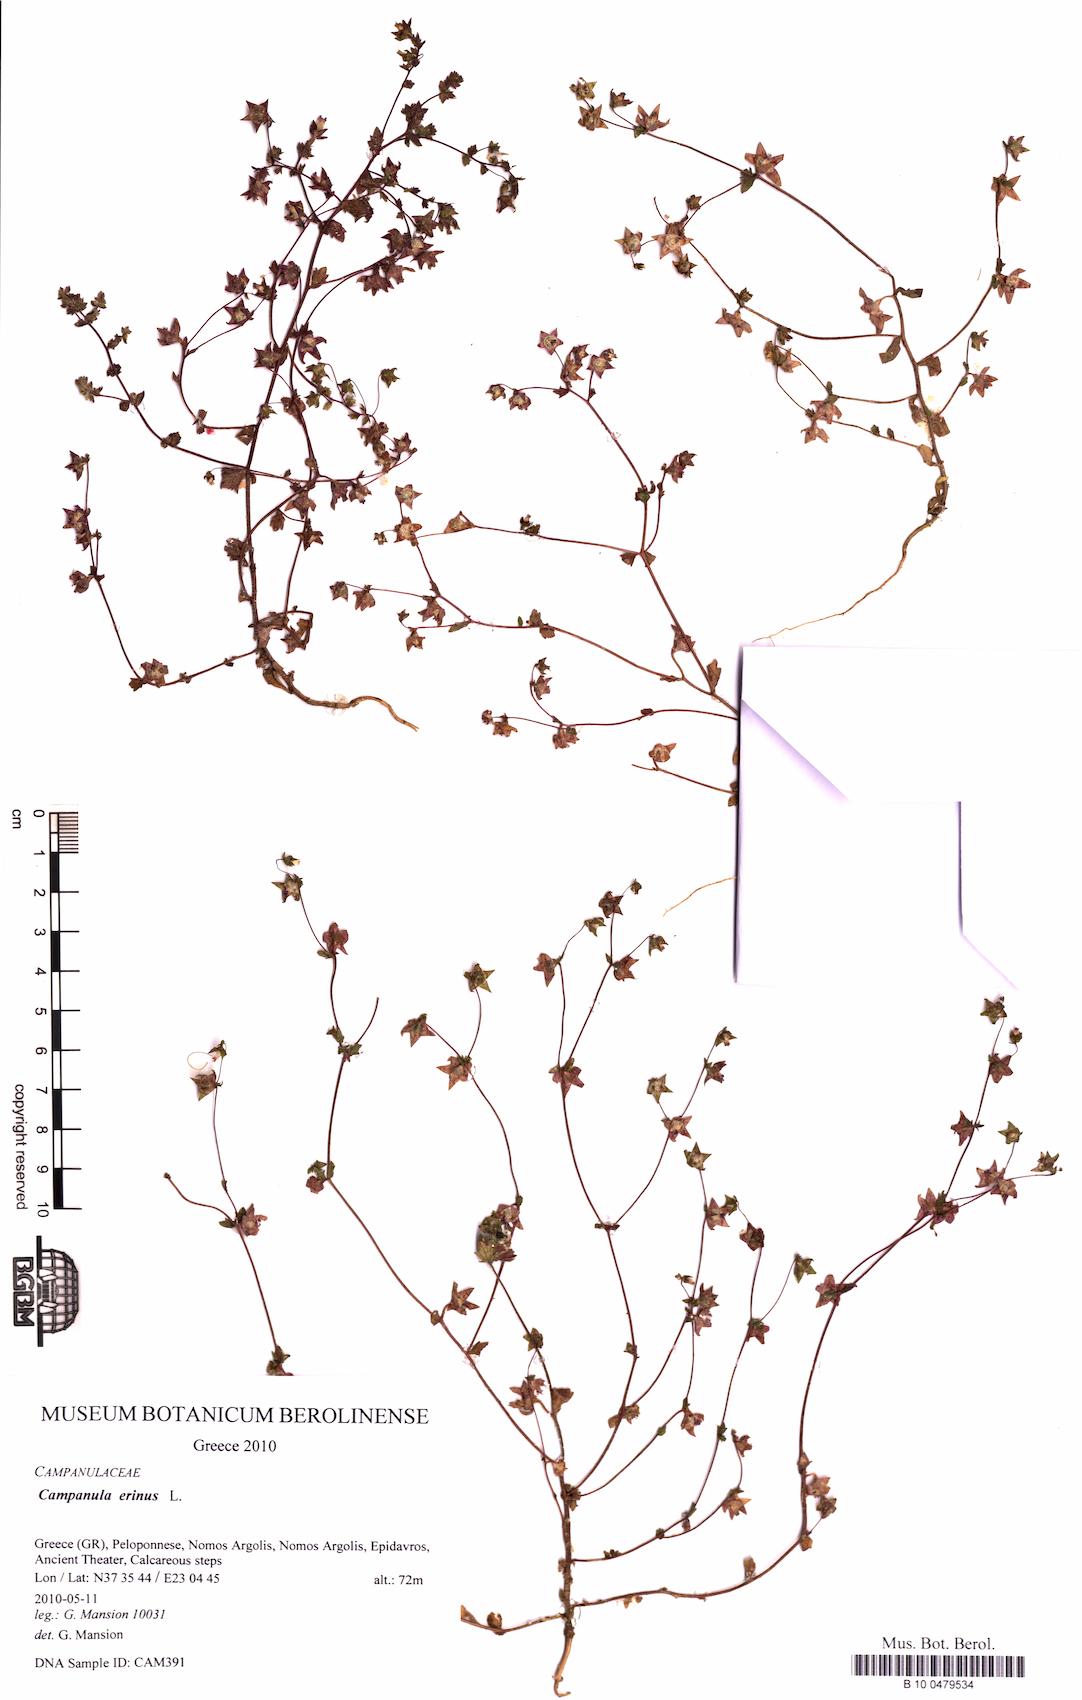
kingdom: Plantae
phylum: Tracheophyta
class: Magnoliopsida
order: Asterales
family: Campanulaceae
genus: Campanula
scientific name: Campanula erinus
